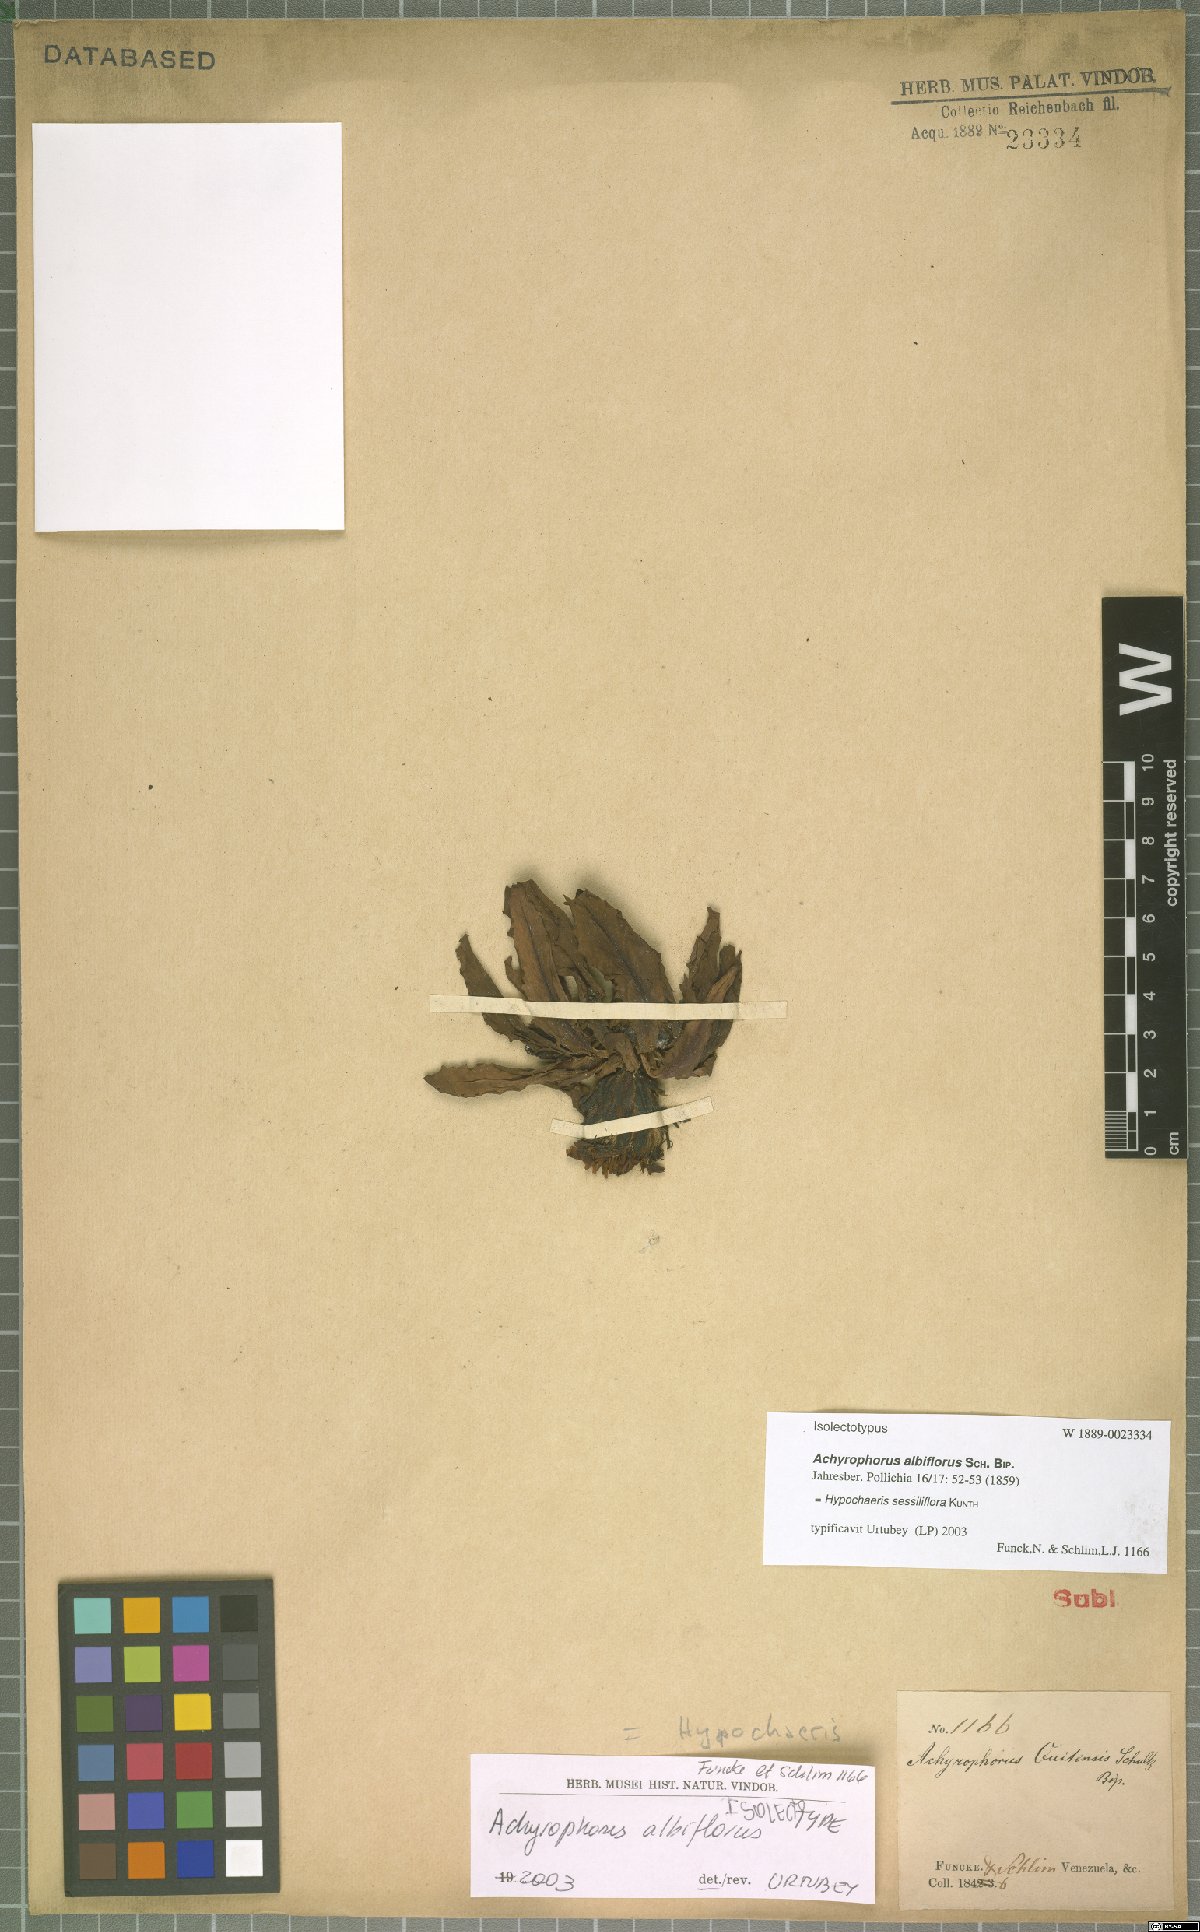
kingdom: Plantae
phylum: Tracheophyta
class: Magnoliopsida
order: Asterales
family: Asteraceae
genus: Hypochaeris
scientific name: Hypochaeris sessiliflora
